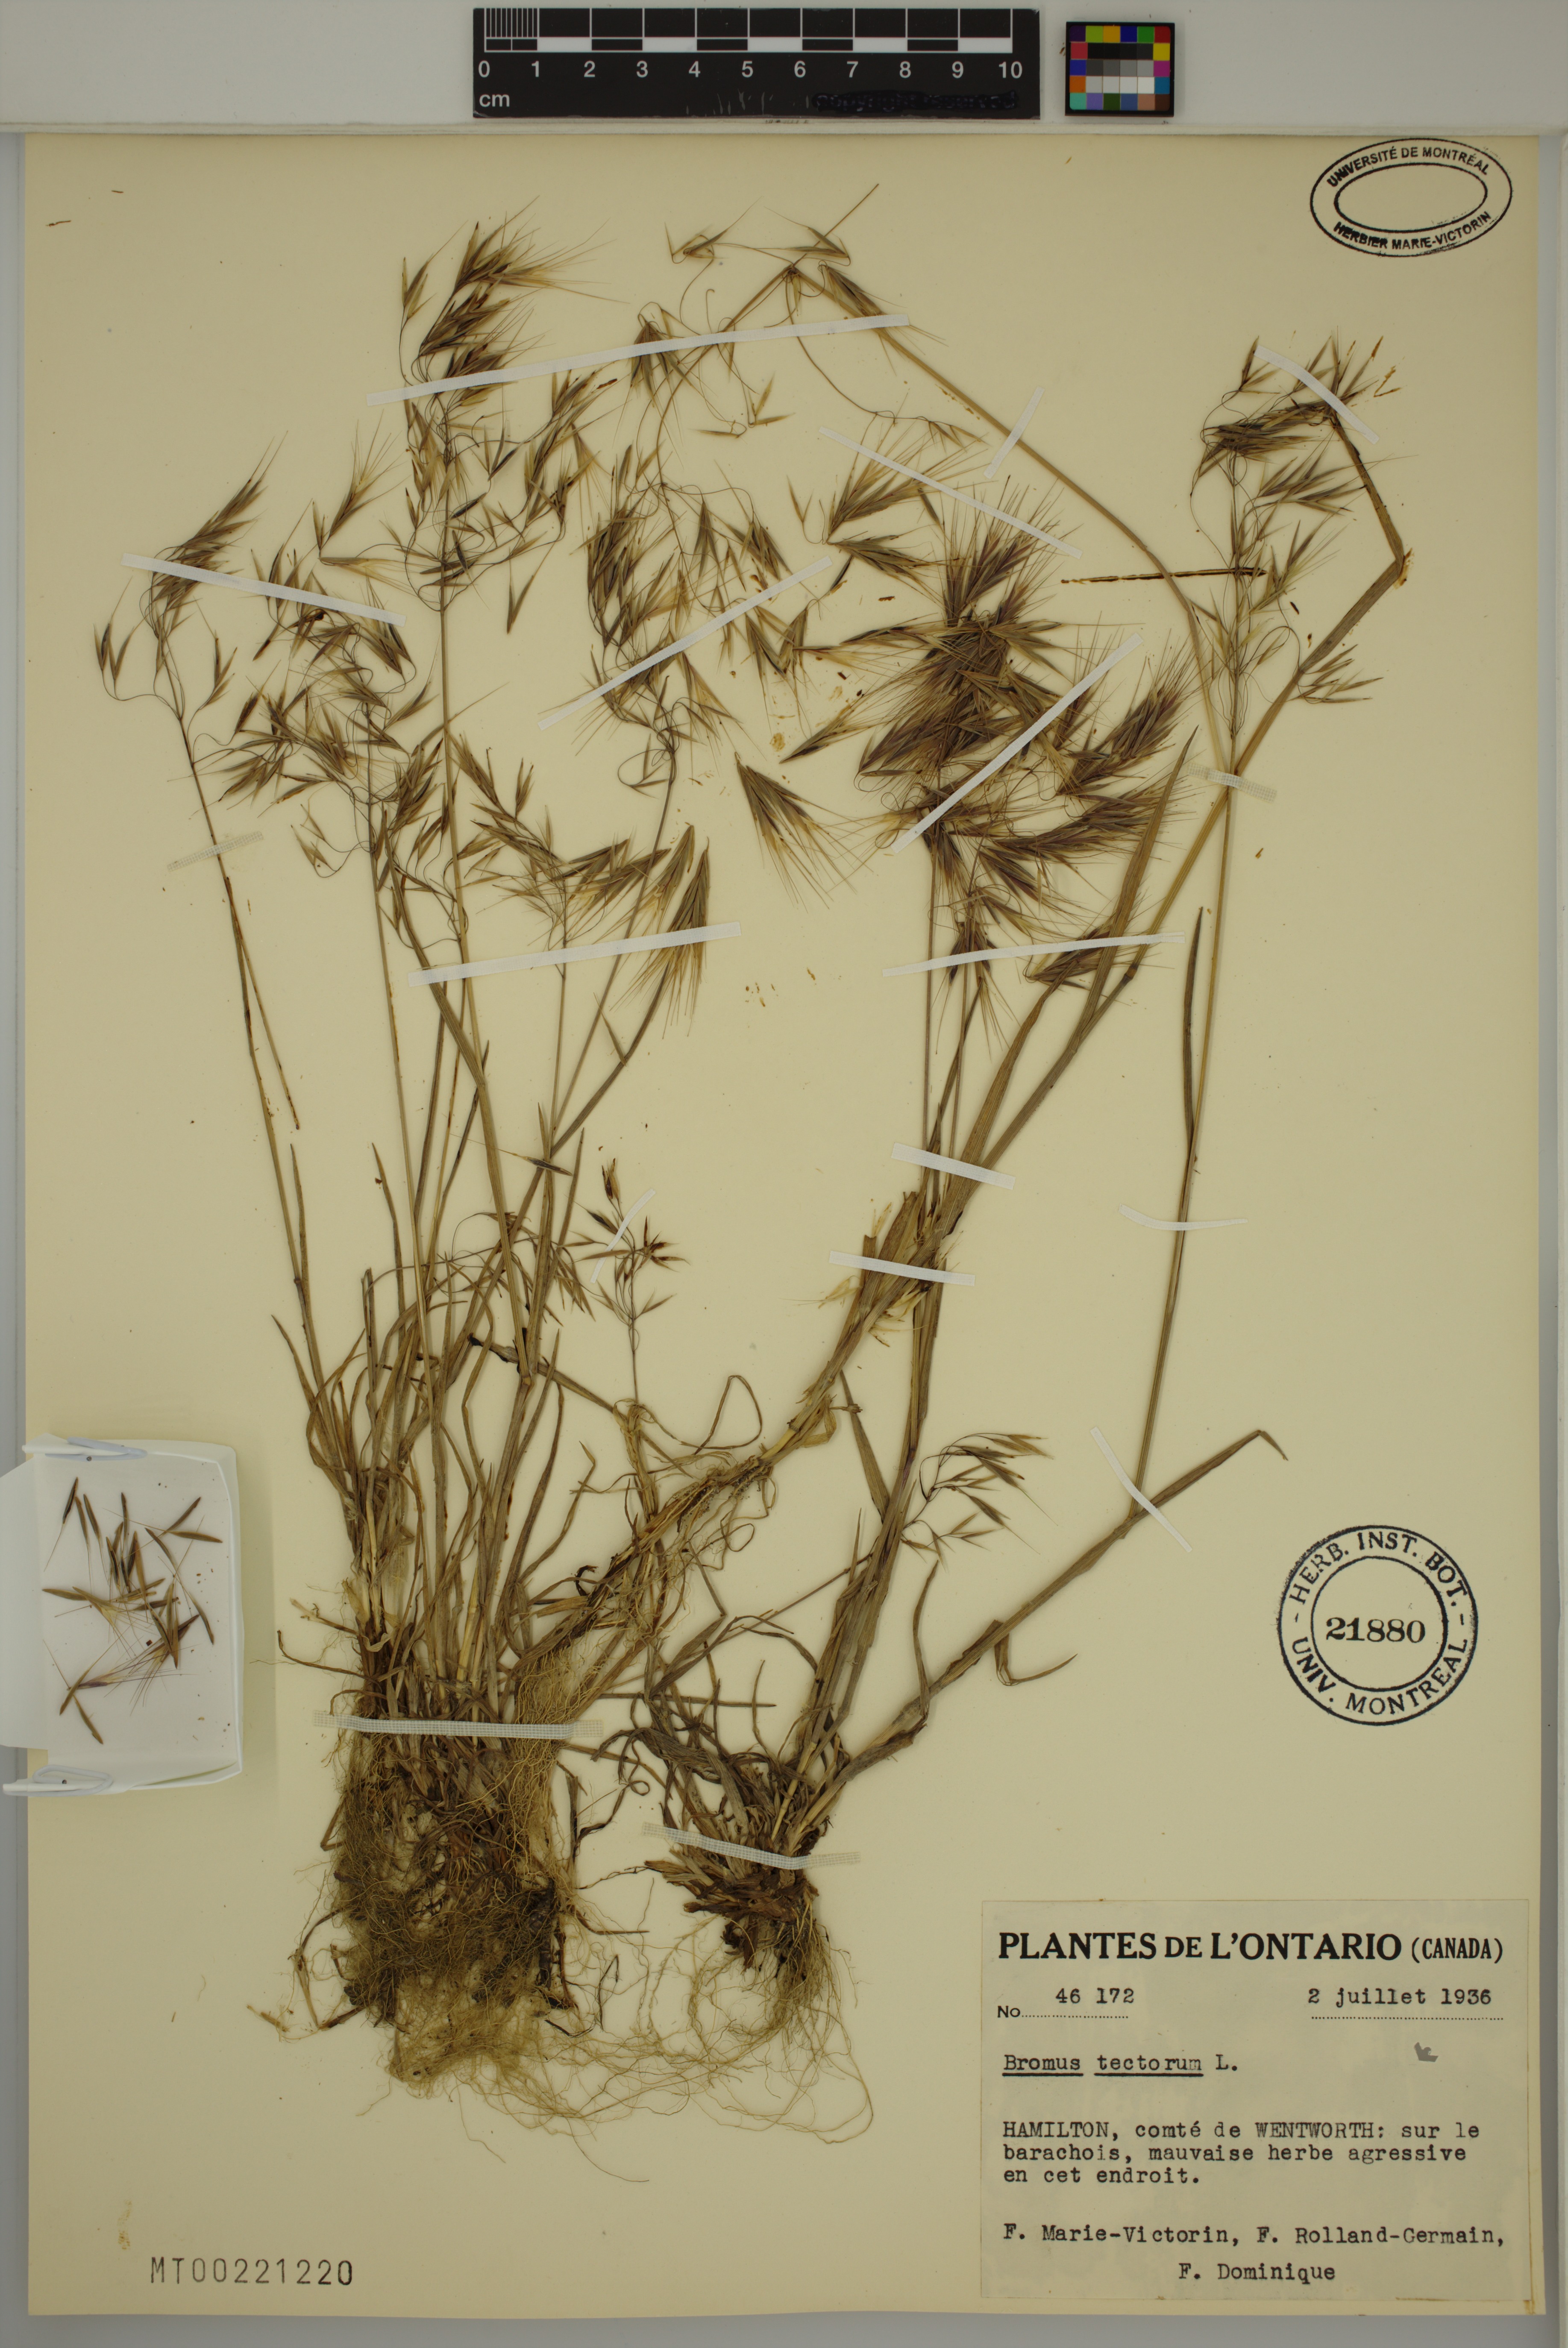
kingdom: Plantae
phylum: Tracheophyta
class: Liliopsida
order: Poales
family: Poaceae
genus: Bromus
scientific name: Bromus tectorum
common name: Cheatgrass
